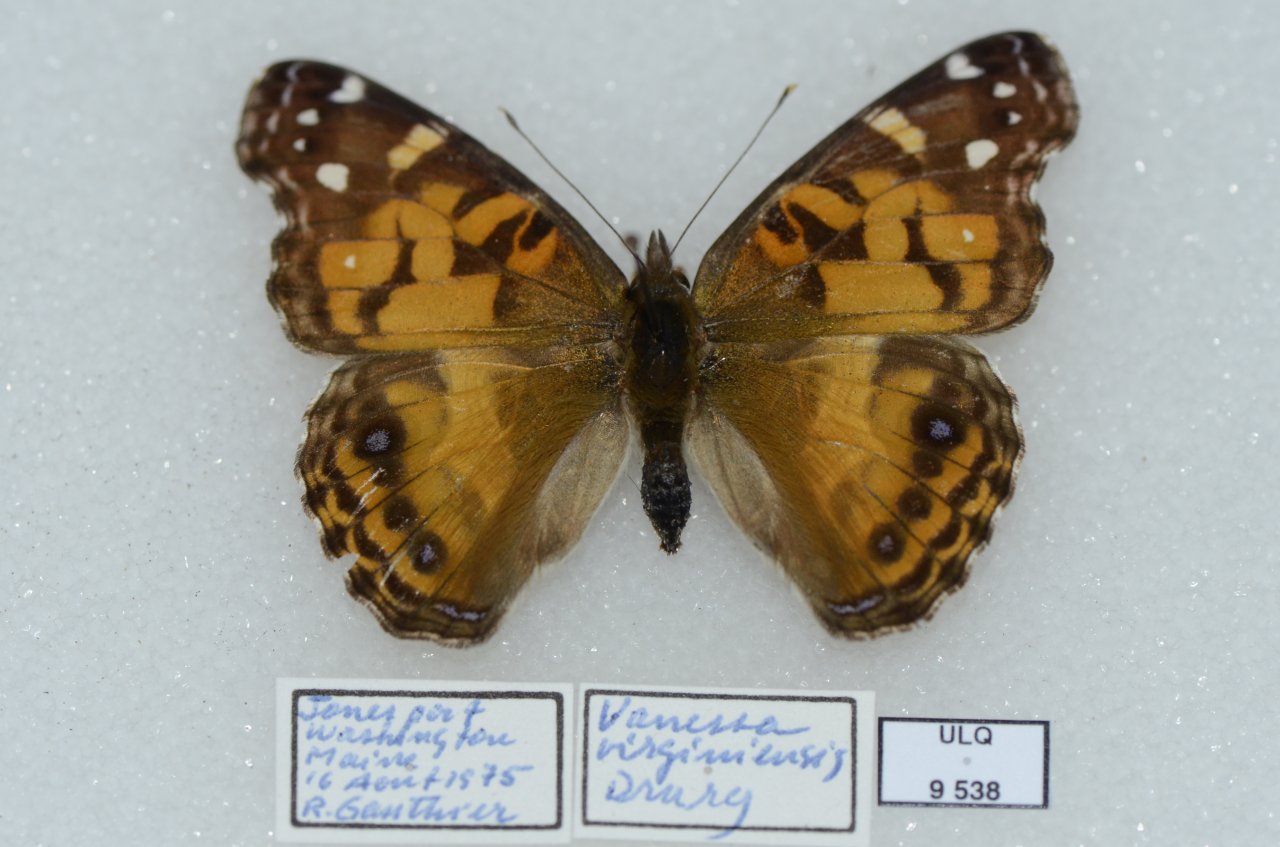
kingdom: Animalia
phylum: Arthropoda
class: Insecta
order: Lepidoptera
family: Nymphalidae
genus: Vanessa
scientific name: Vanessa virginiensis
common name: American Lady
